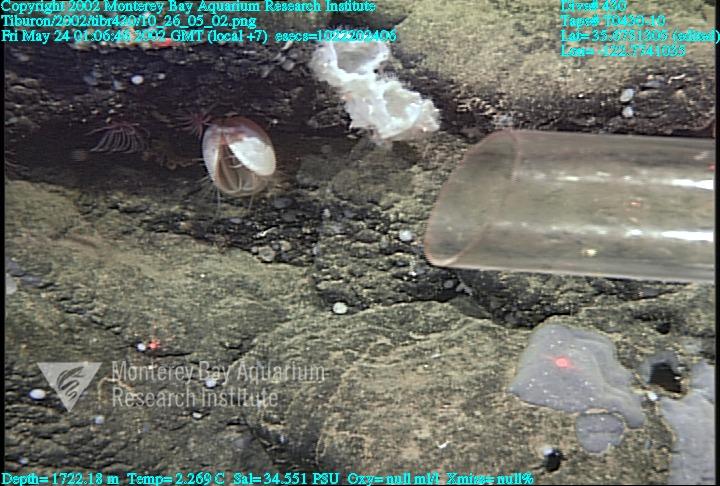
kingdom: Animalia
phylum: Porifera
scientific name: Porifera
